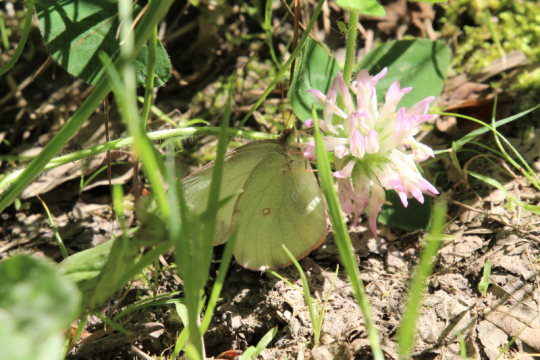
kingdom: Animalia
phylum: Arthropoda
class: Insecta
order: Lepidoptera
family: Pieridae
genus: Colias
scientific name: Colias philodice
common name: Clouded Sulphur
